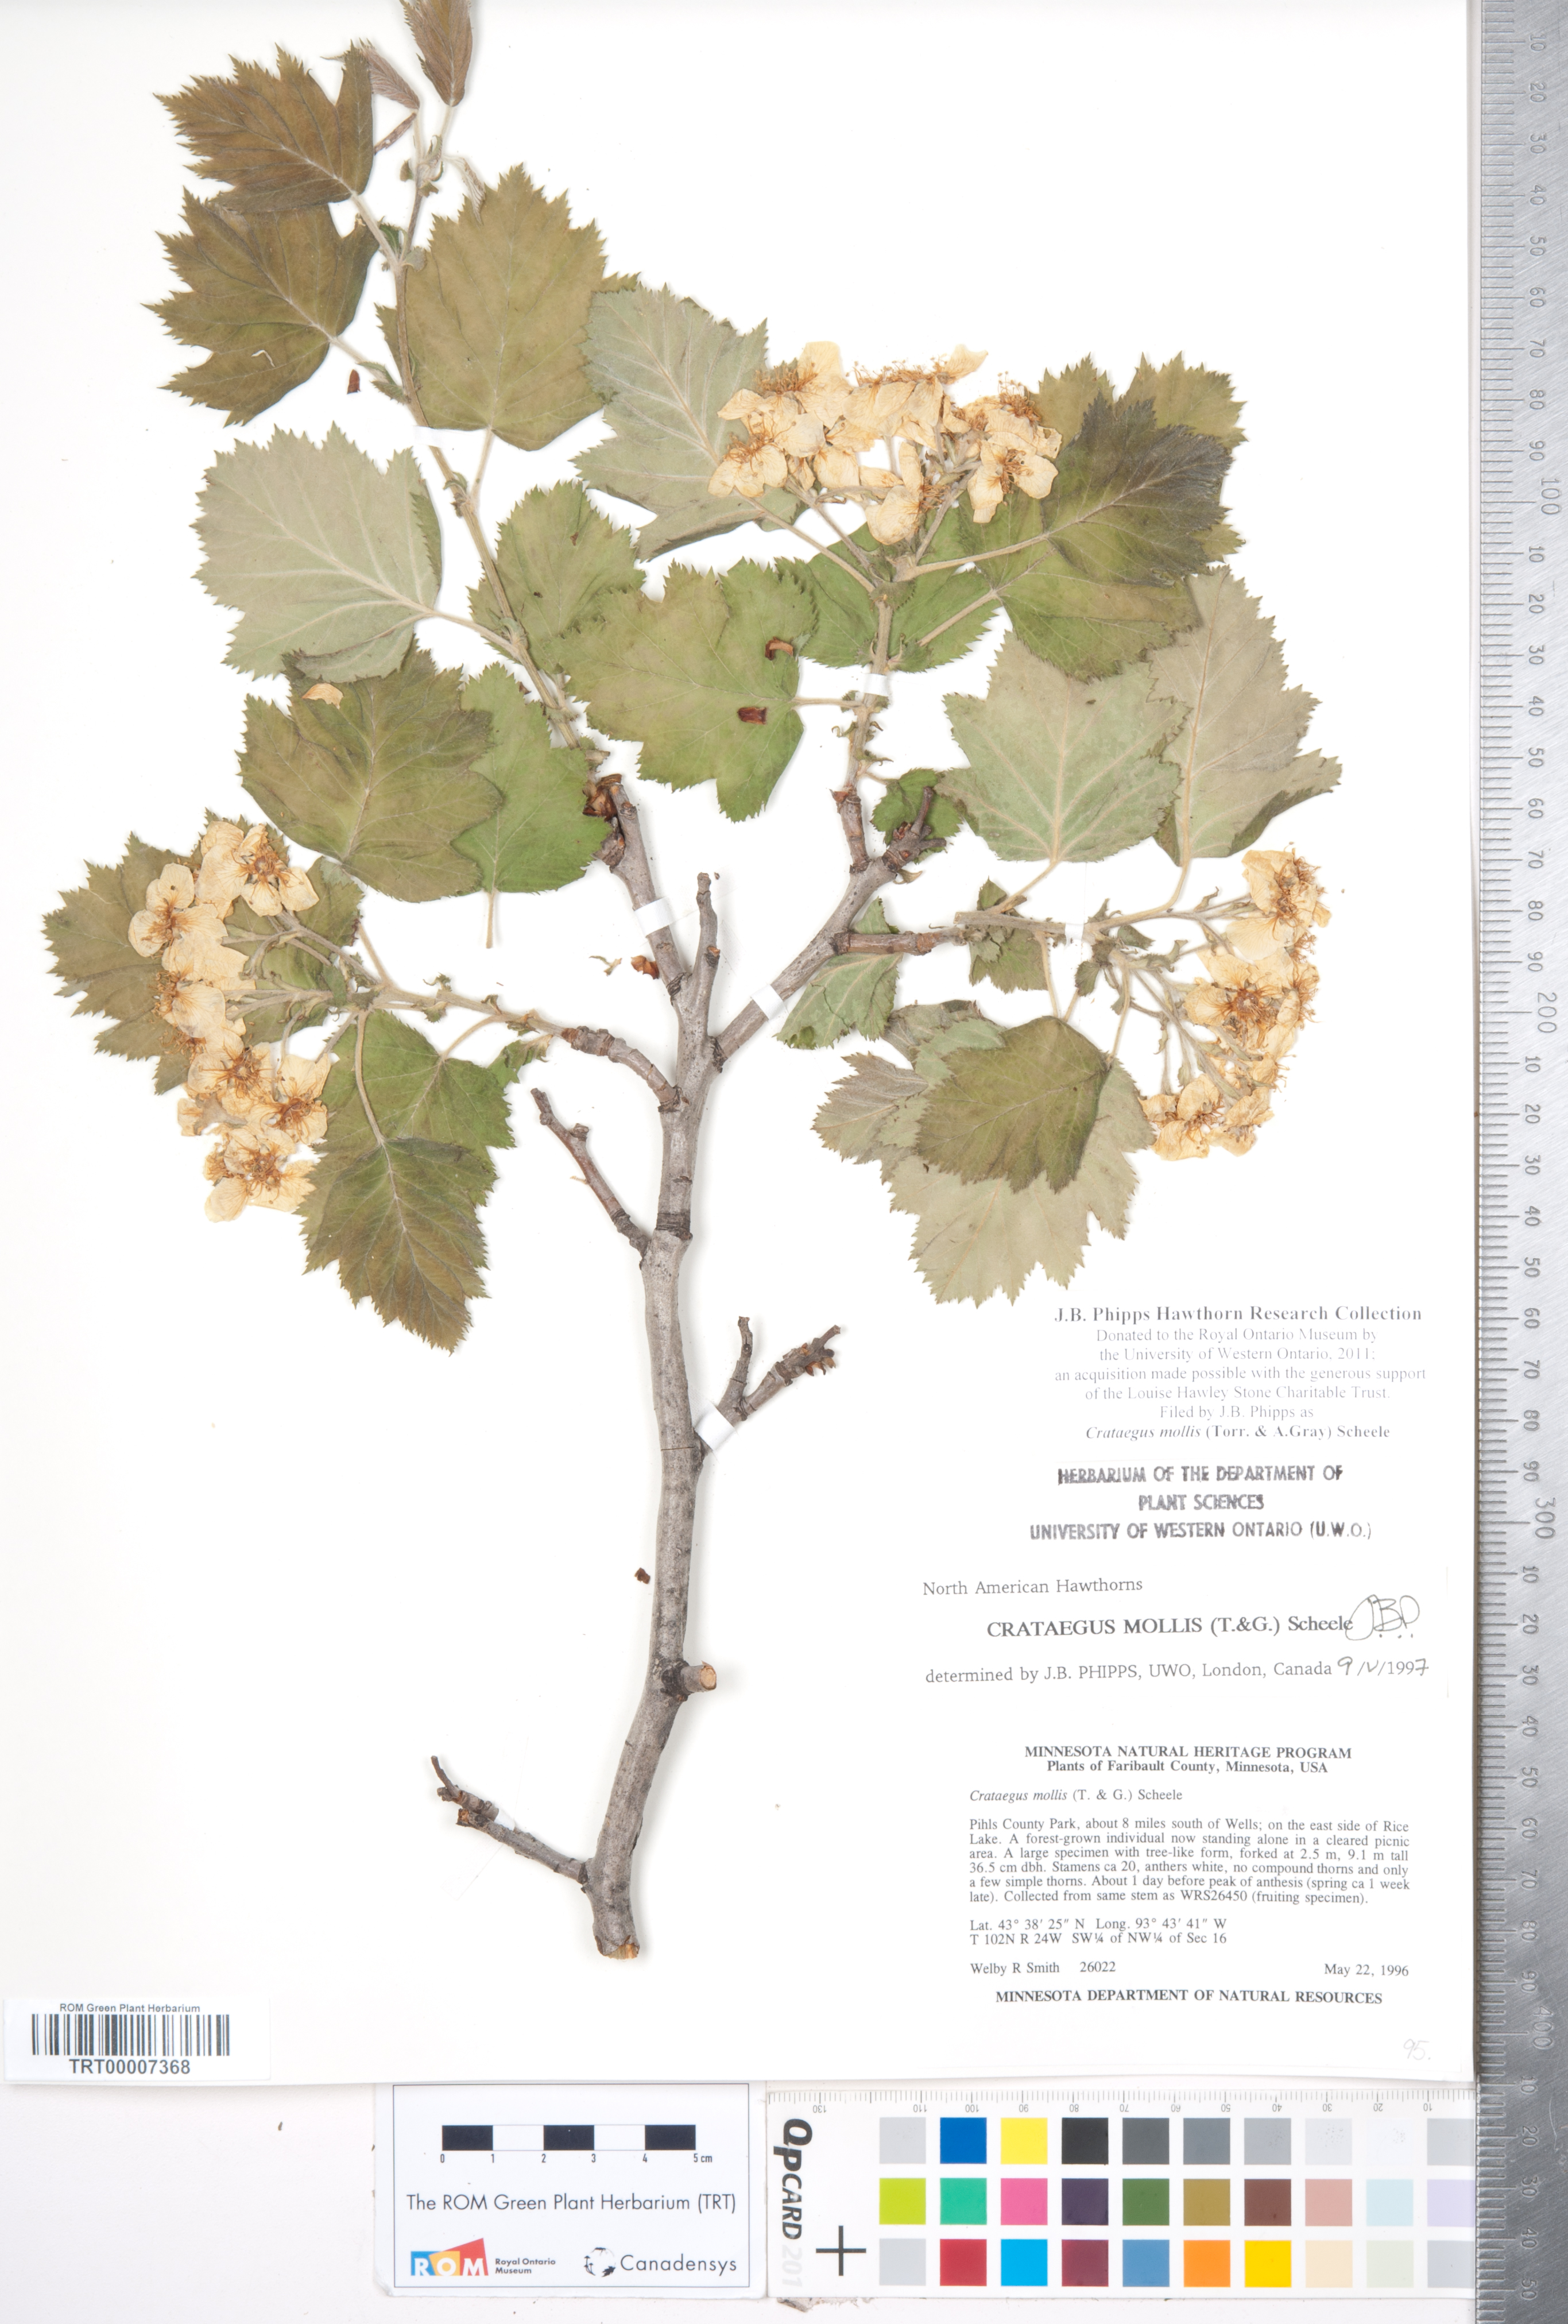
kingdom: Plantae
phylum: Tracheophyta
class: Magnoliopsida
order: Rosales
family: Rosaceae
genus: Crataegus
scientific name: Crataegus mollis
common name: Downy hawthorn
